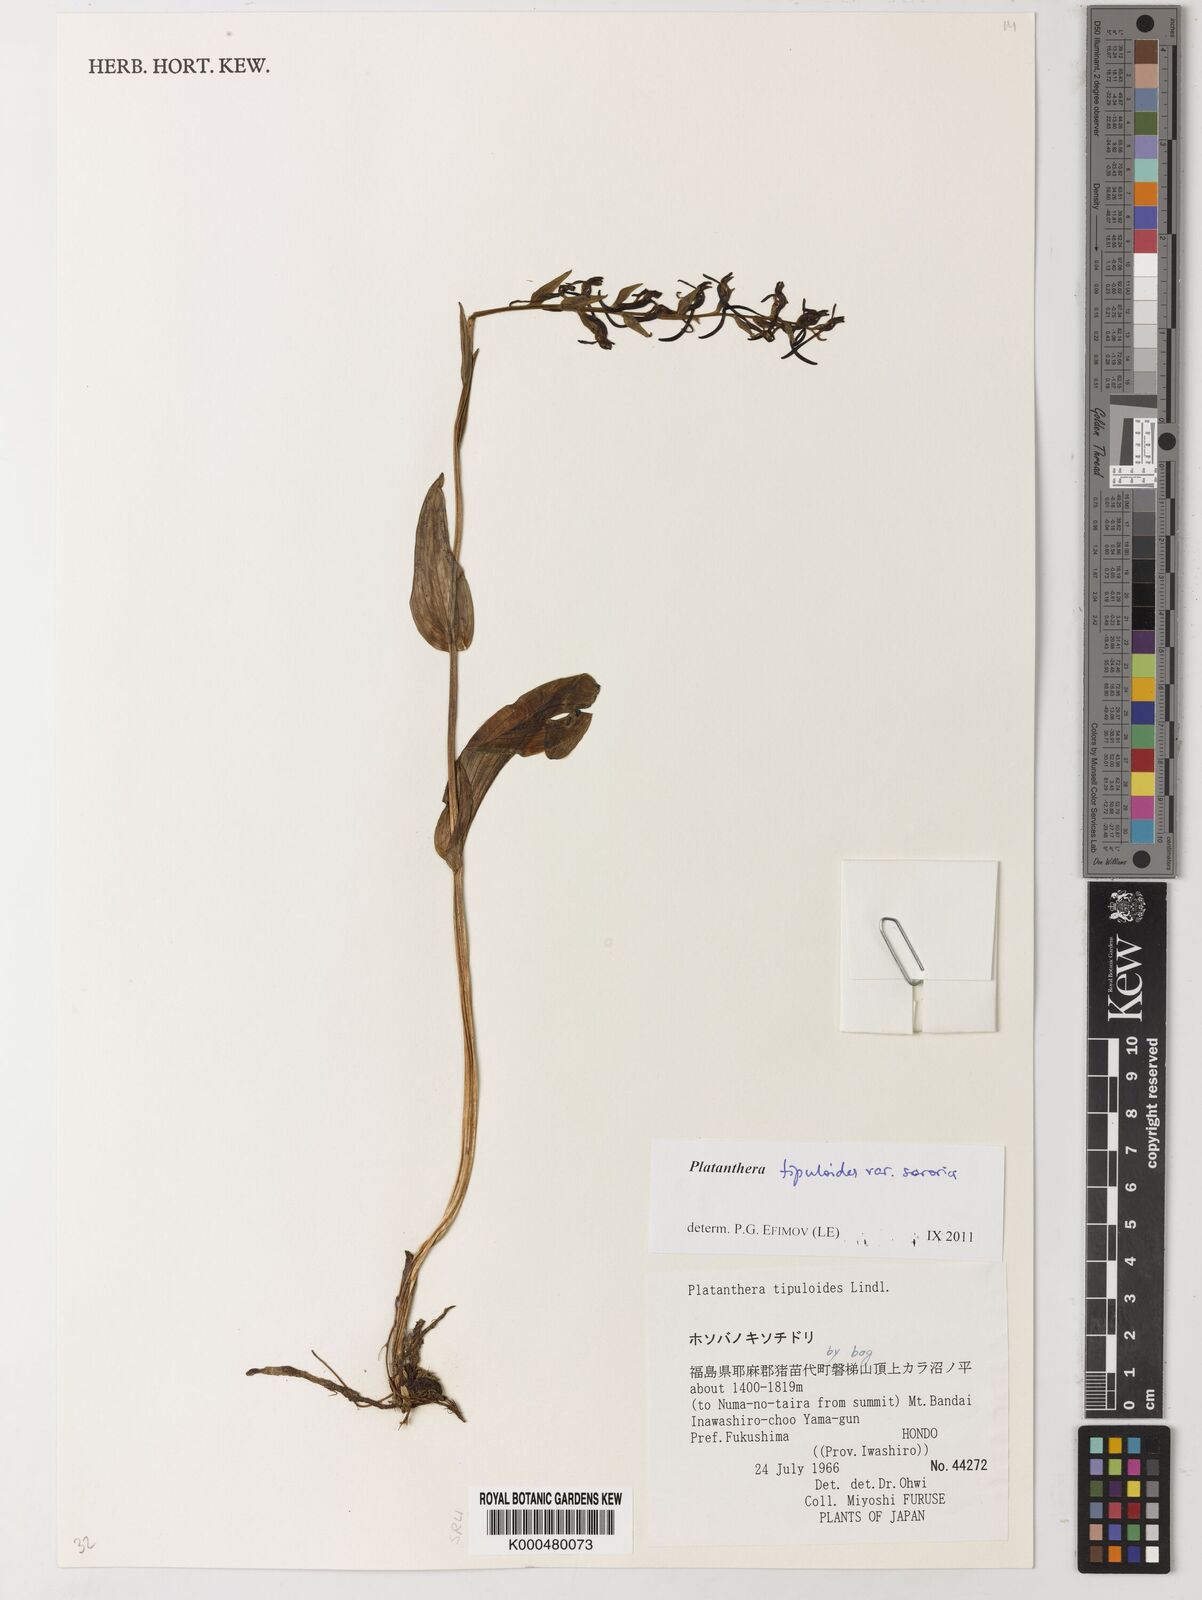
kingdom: Plantae
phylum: Tracheophyta
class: Liliopsida
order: Asparagales
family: Orchidaceae
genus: Platanthera
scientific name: Platanthera tipuloides
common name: Aleutian bog orchid
